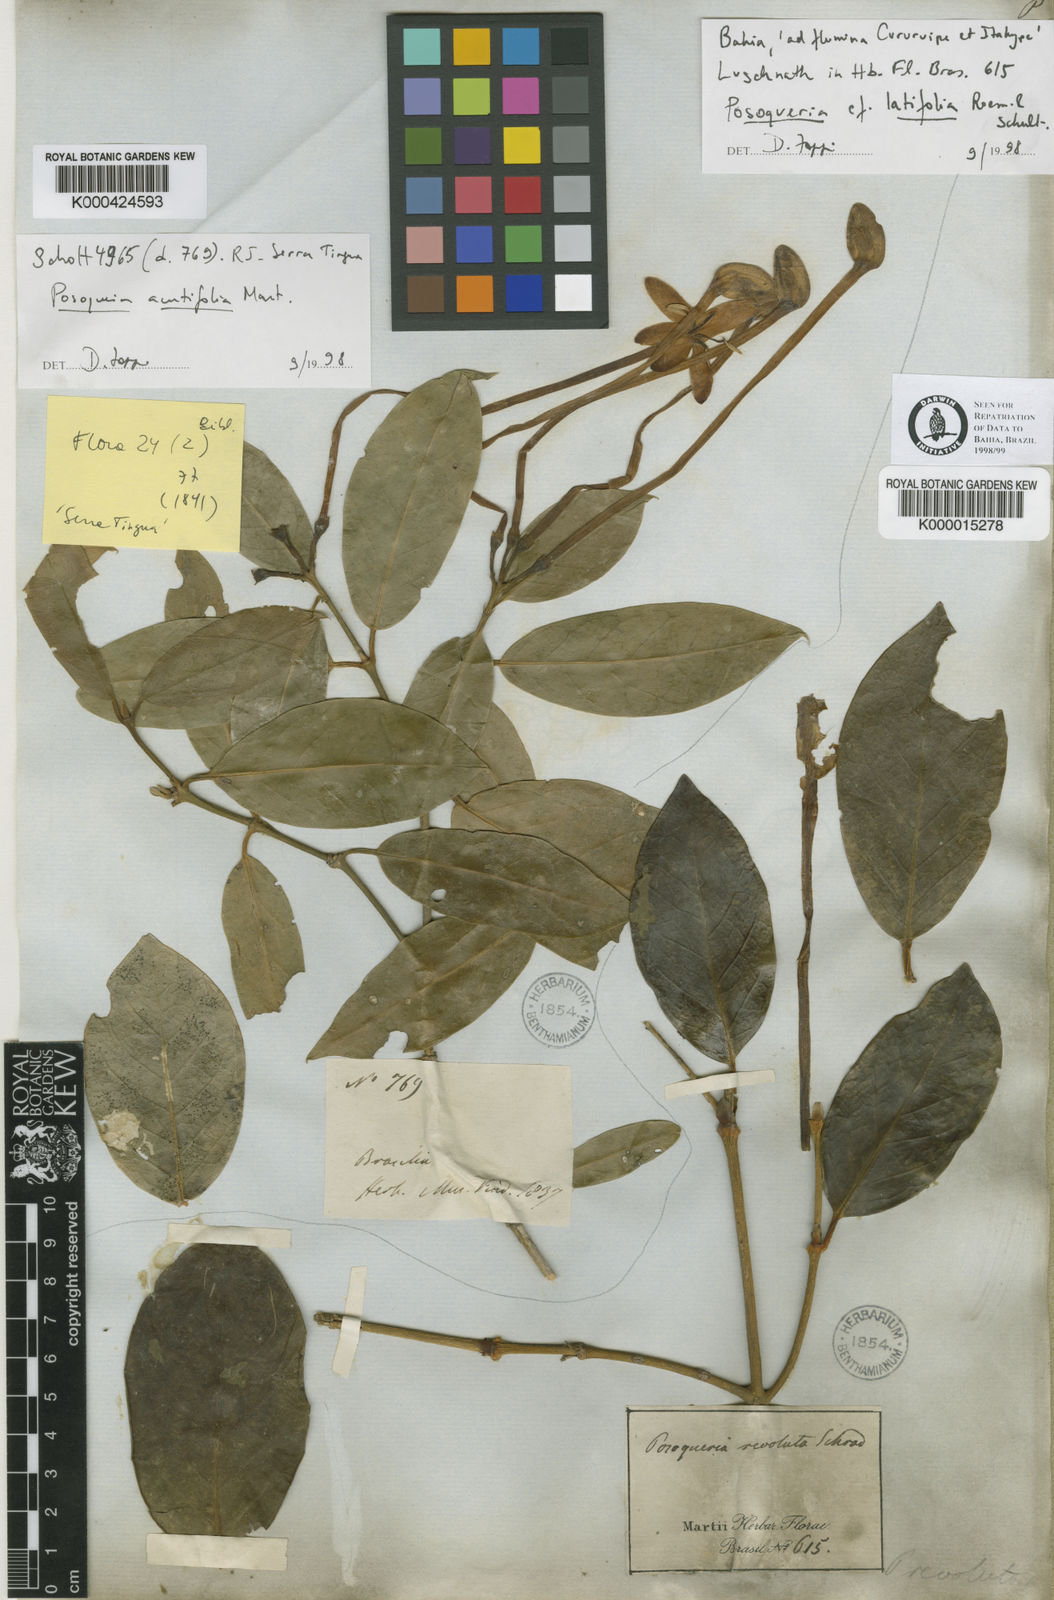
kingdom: Plantae
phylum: Tracheophyta
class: Magnoliopsida
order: Gentianales
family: Rubiaceae
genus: Posoqueria
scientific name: Posoqueria acutifolia
